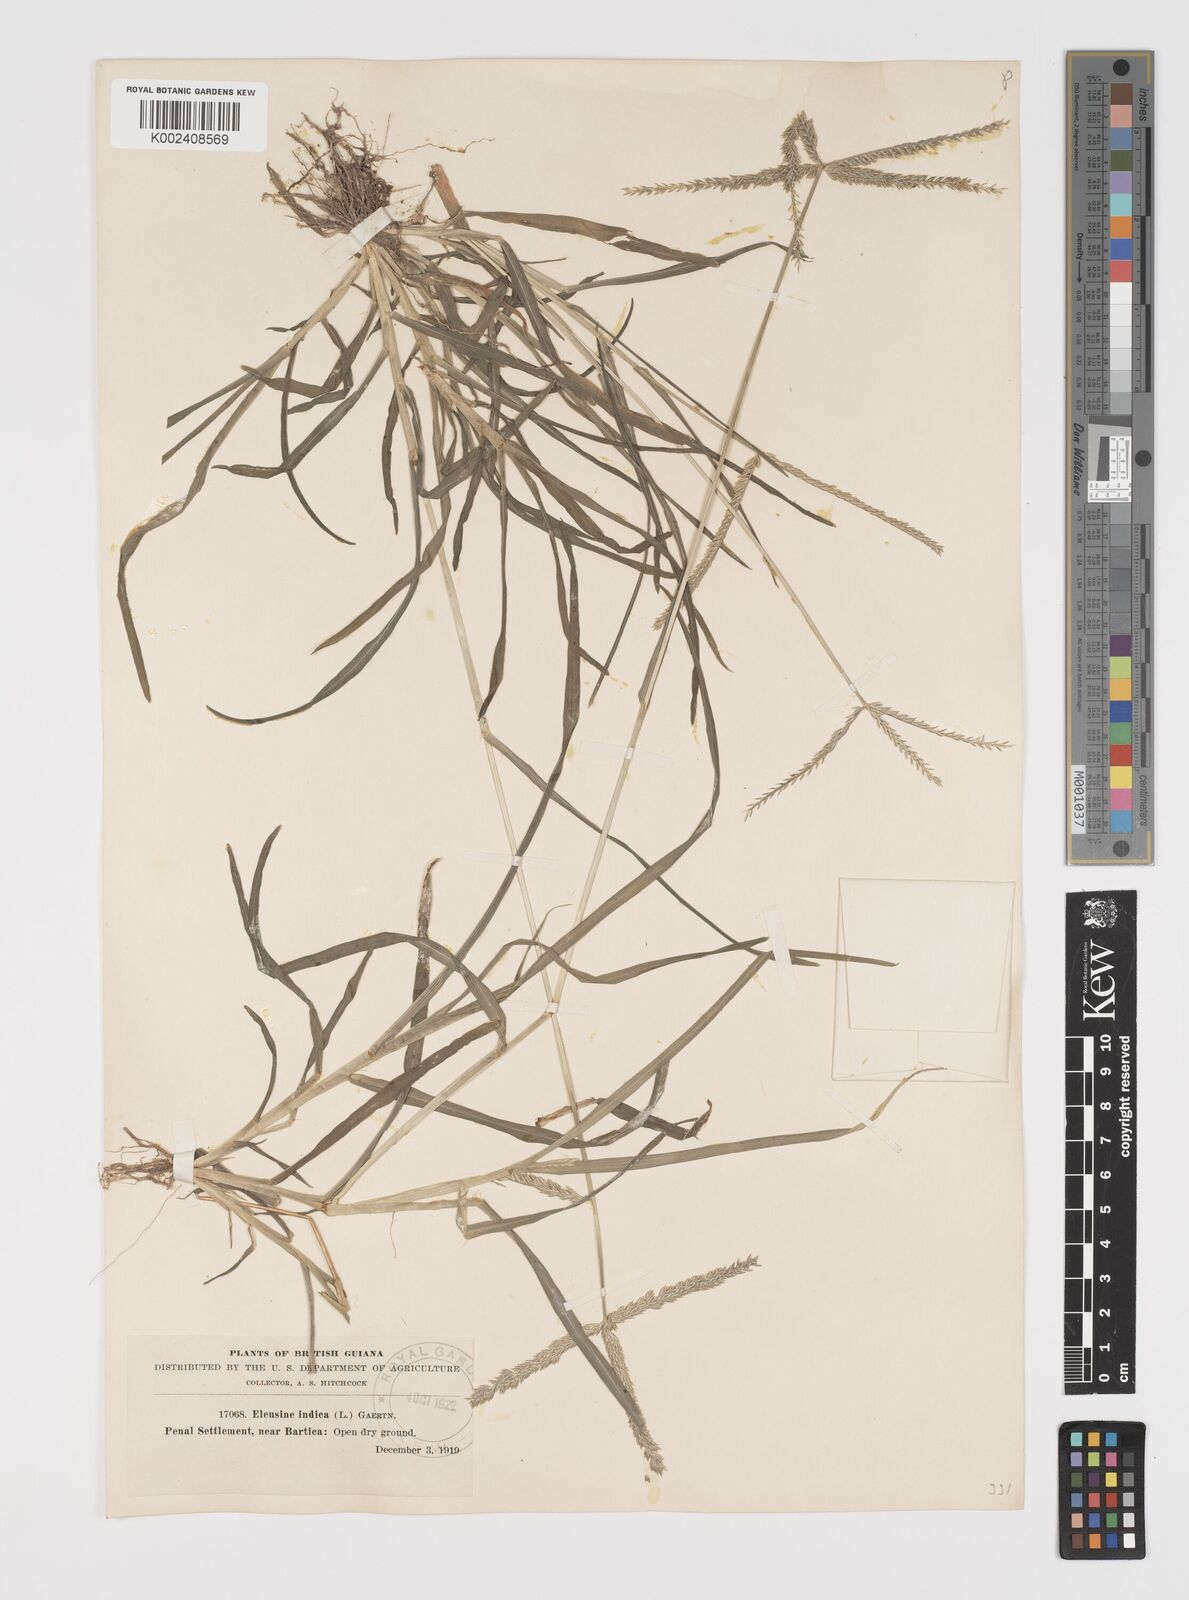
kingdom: Plantae
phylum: Tracheophyta
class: Liliopsida
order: Poales
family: Poaceae
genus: Eleusine
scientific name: Eleusine indica
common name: Yard-grass
